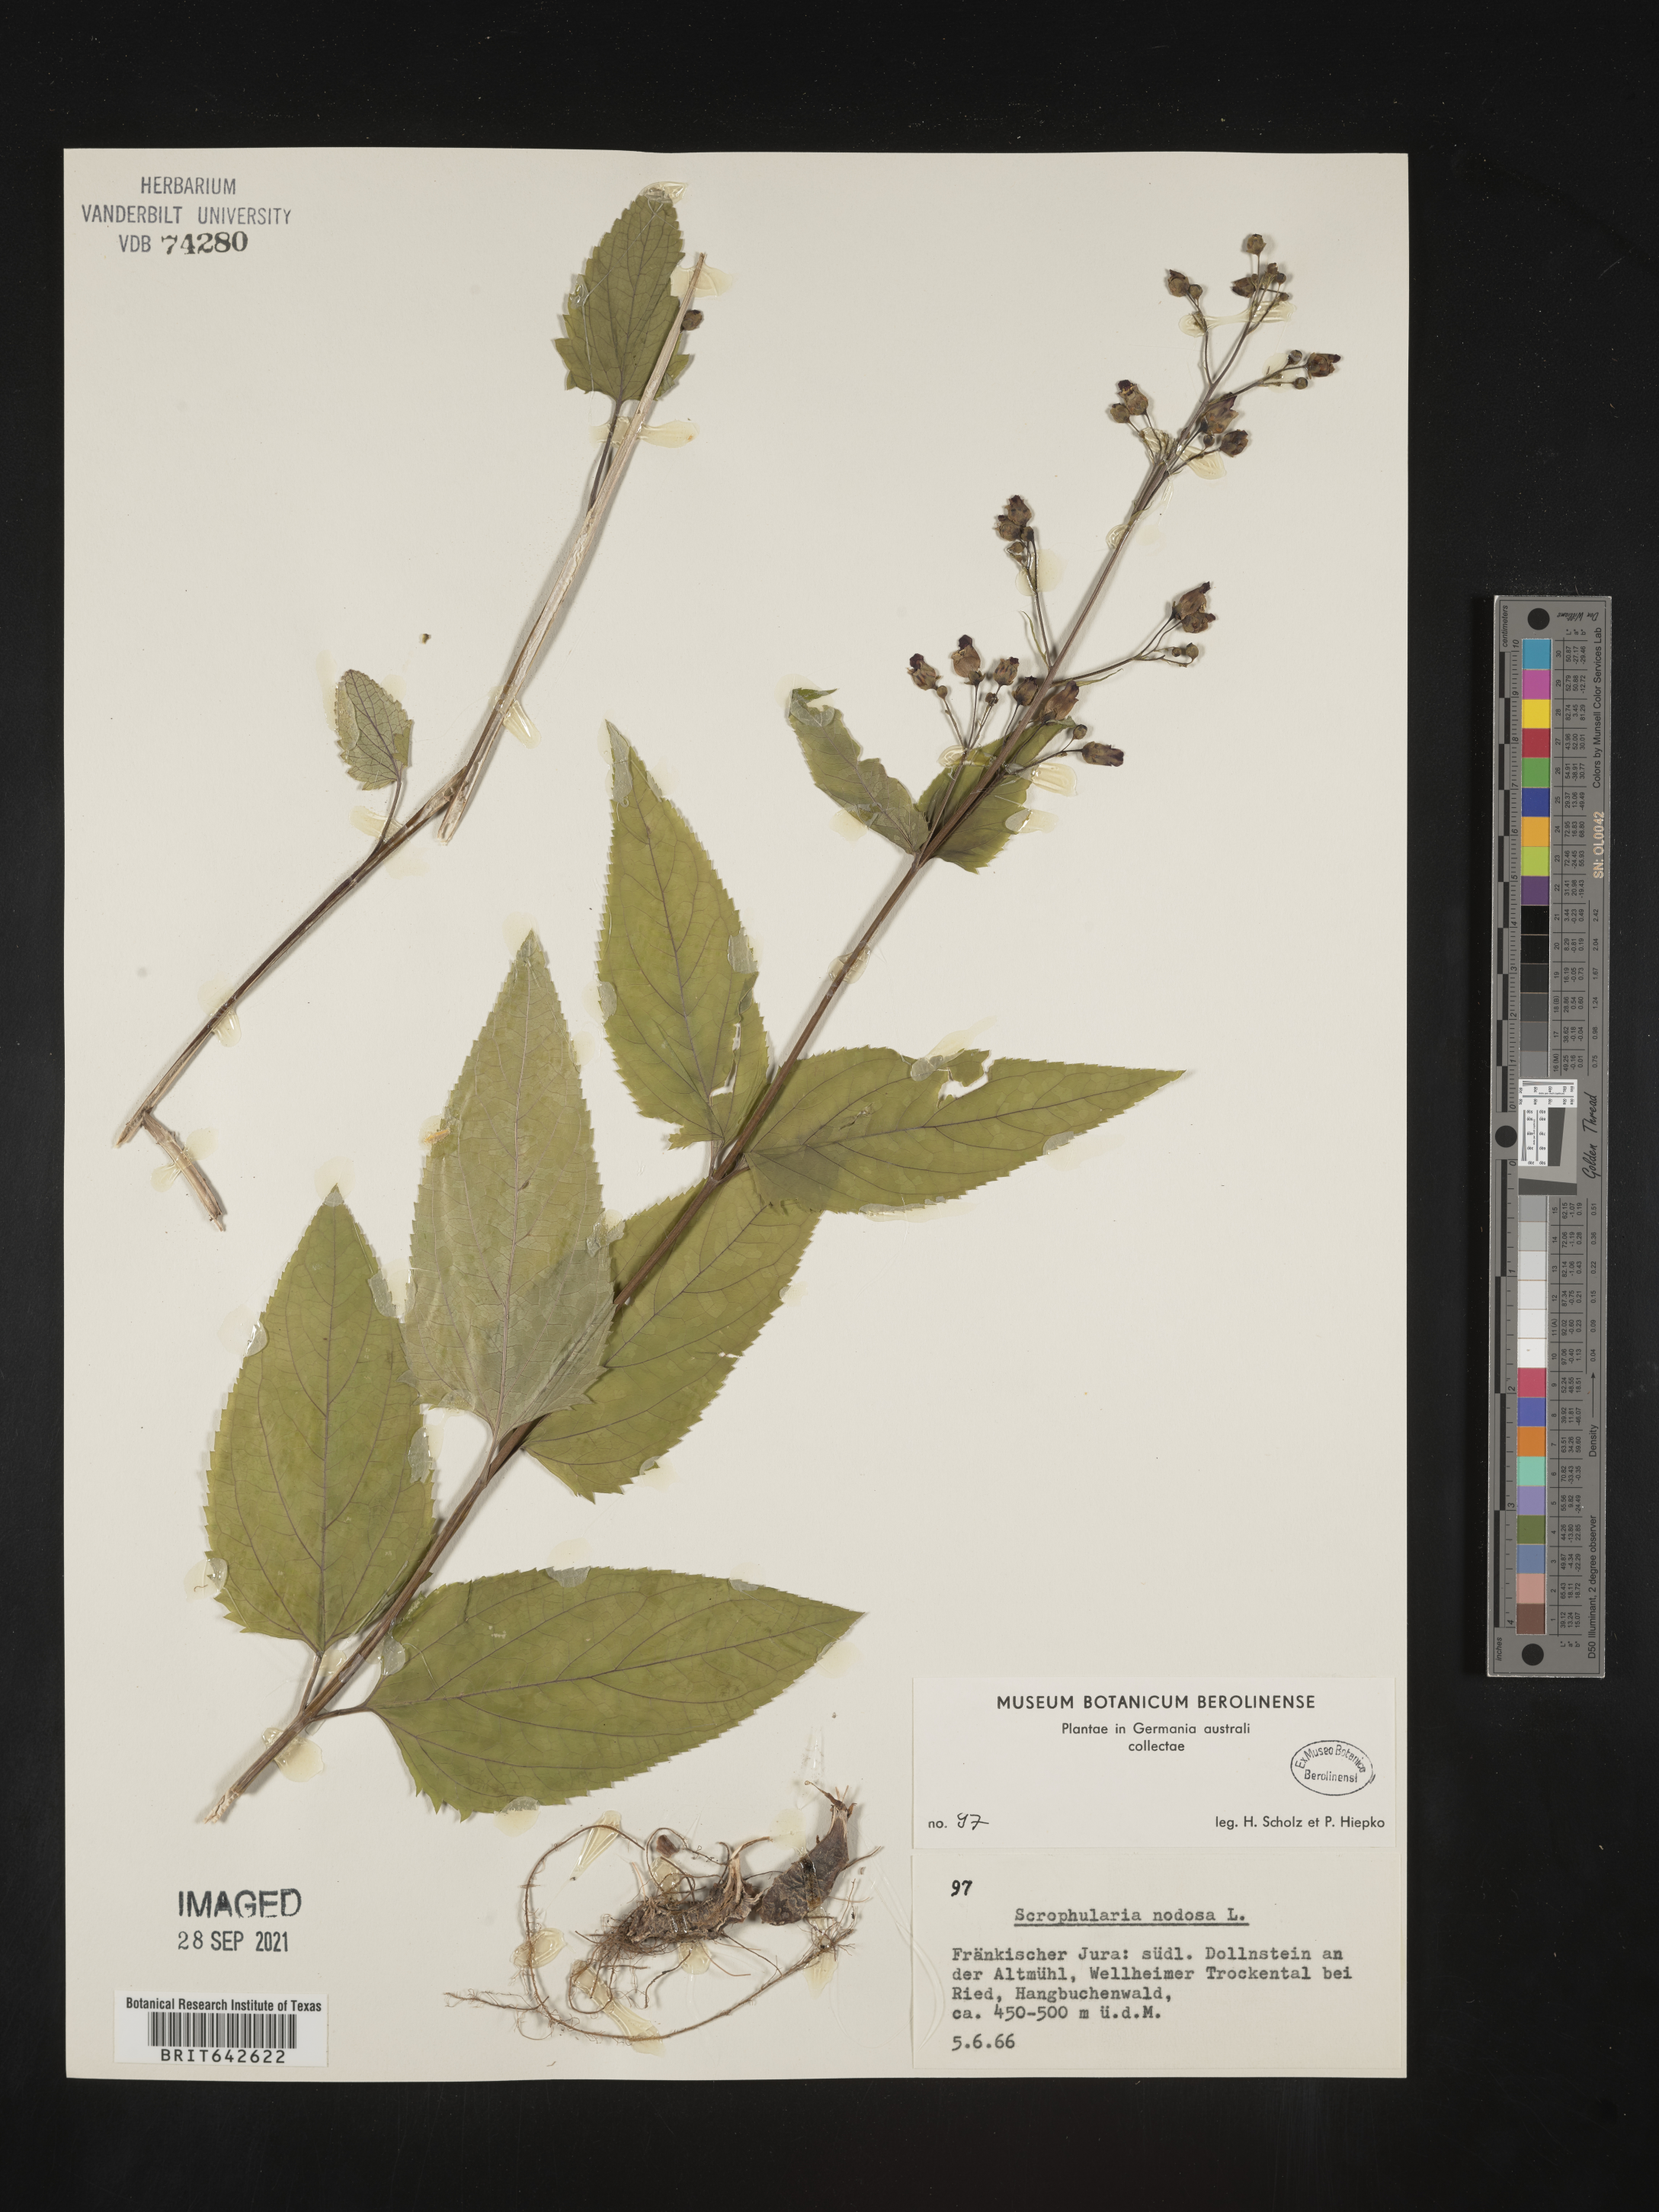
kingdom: Plantae
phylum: Tracheophyta
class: Magnoliopsida
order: Lamiales
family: Scrophulariaceae
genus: Scrophularia
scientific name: Scrophularia
